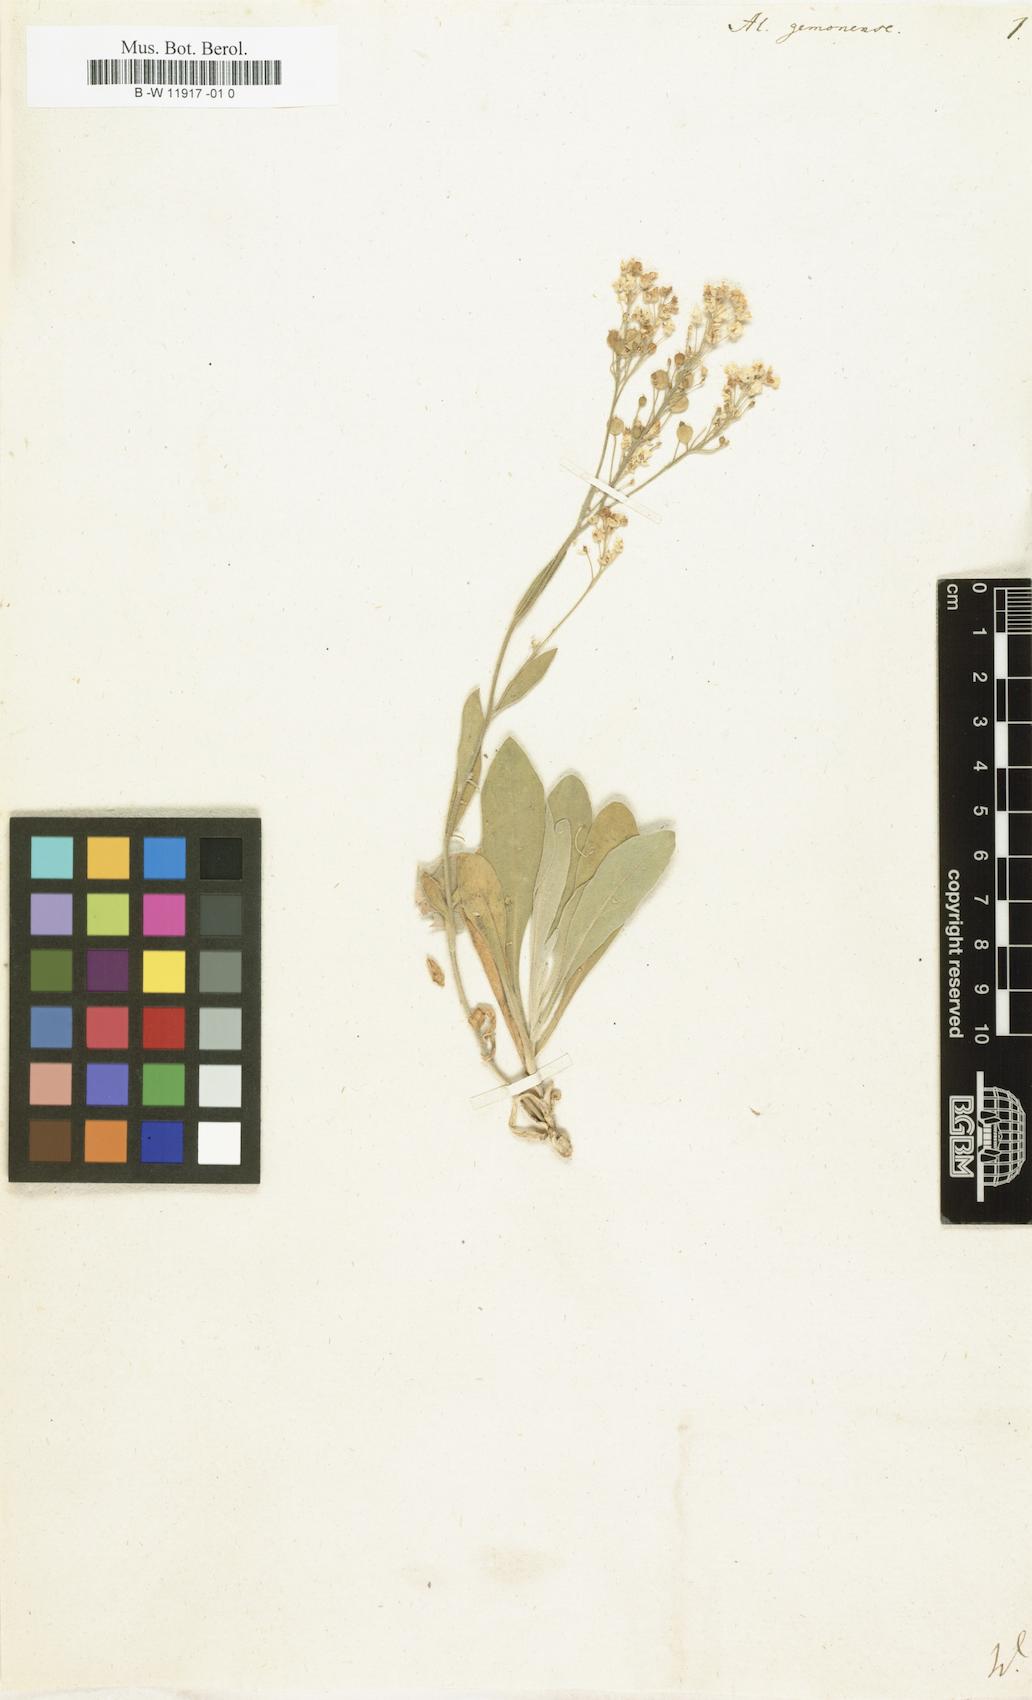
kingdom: Plantae
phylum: Tracheophyta
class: Magnoliopsida
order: Brassicales
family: Brassicaceae
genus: Aurinia
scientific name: Aurinia petraea
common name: Goldentuft
